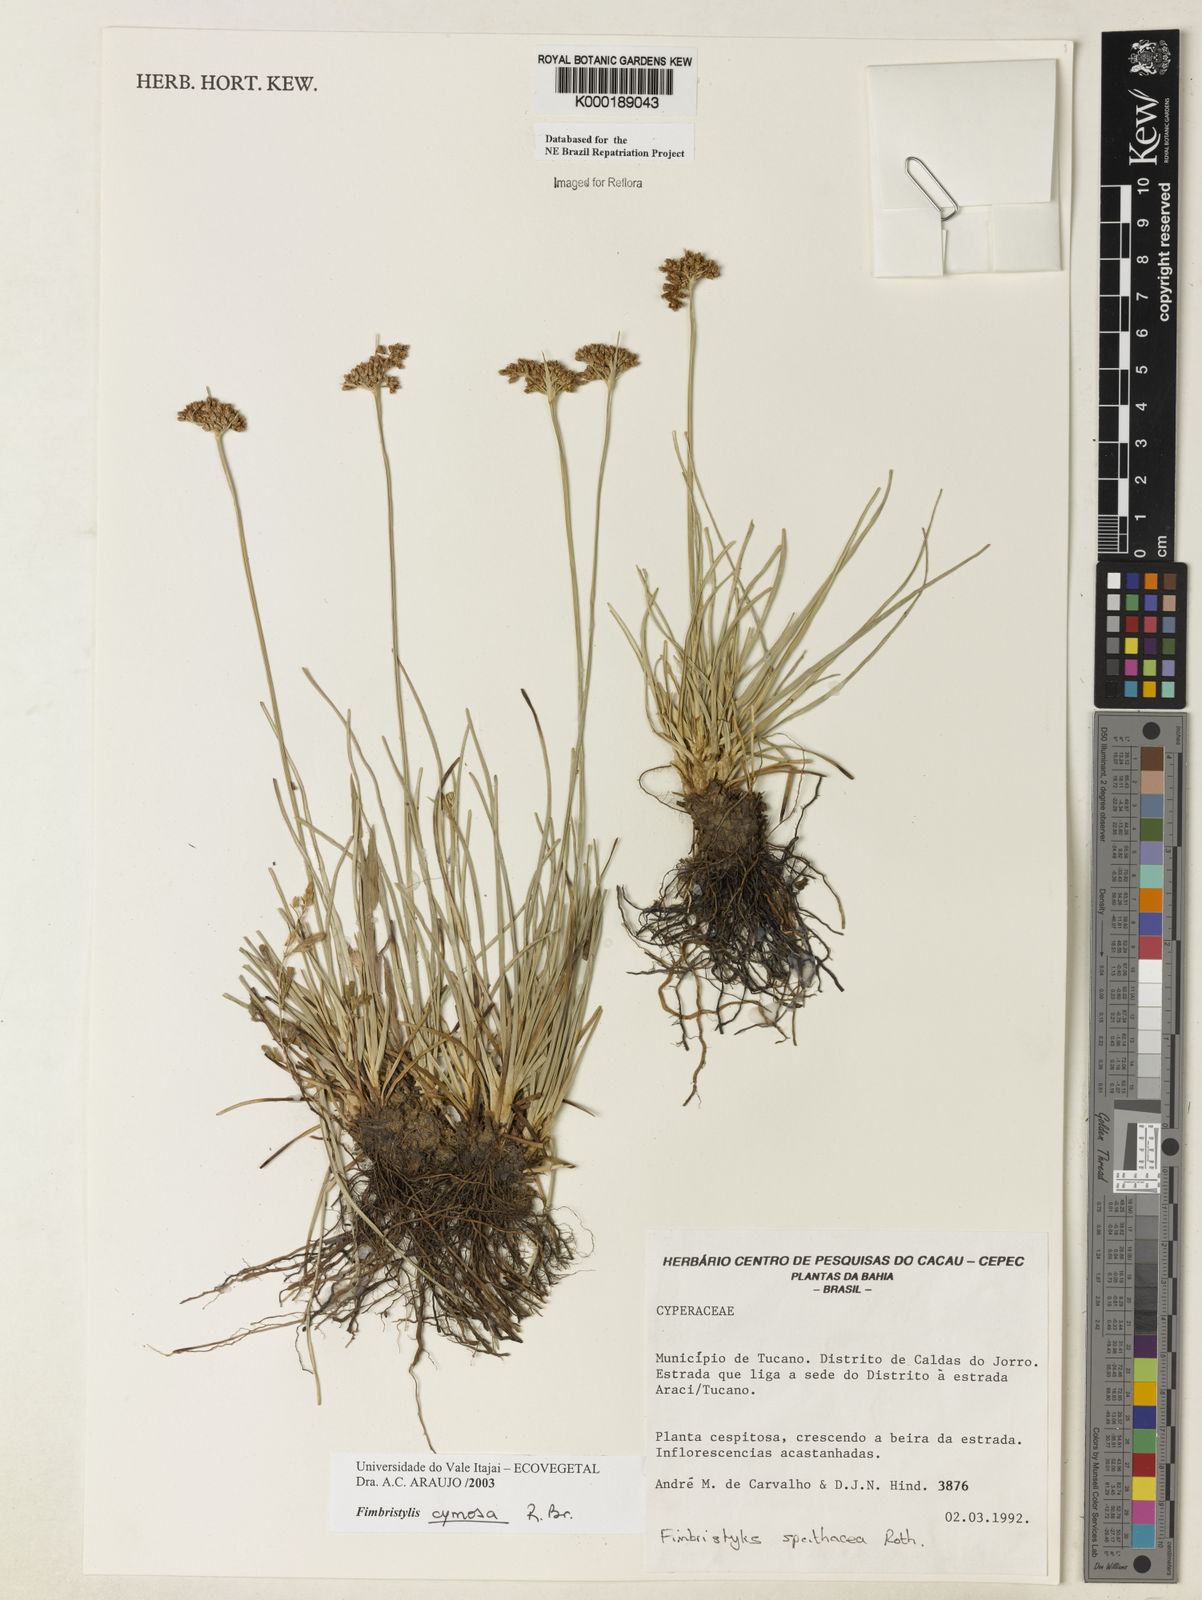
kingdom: Plantae
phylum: Tracheophyta
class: Liliopsida
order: Poales
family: Cyperaceae
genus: Fimbristylis
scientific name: Fimbristylis cymosa
